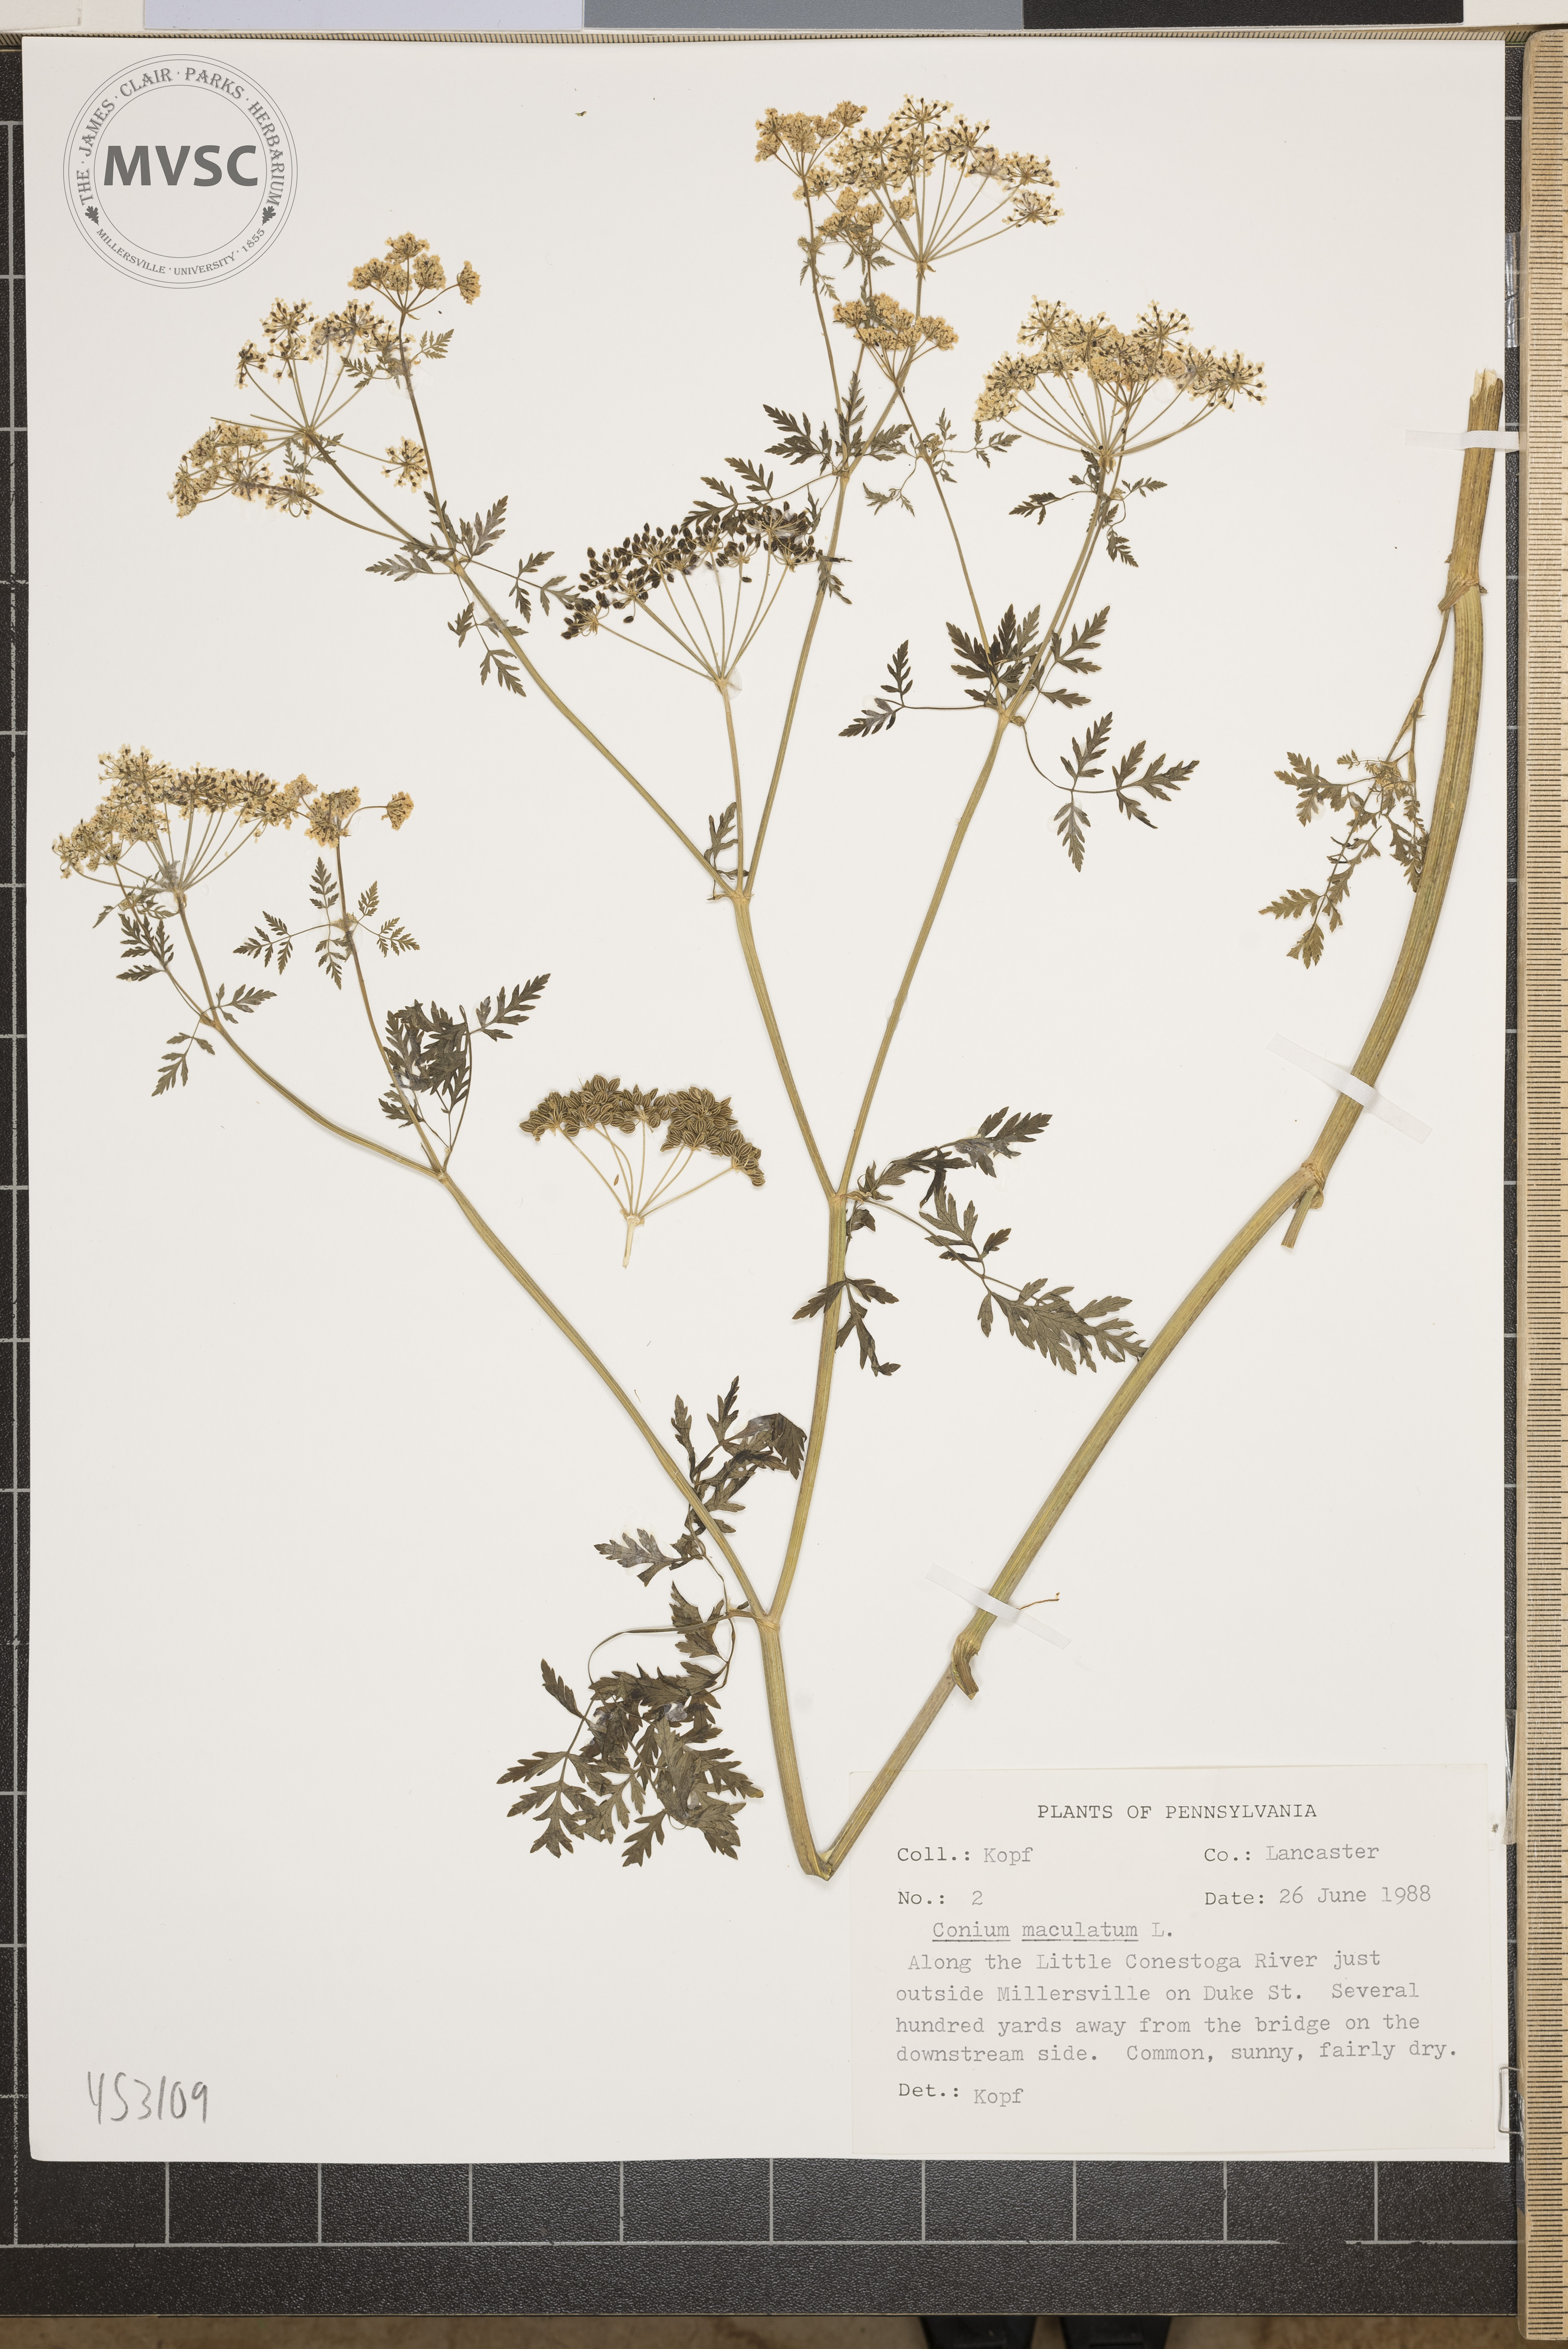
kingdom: Plantae
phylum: Tracheophyta
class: Magnoliopsida
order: Apiales
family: Apiaceae
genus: Conium
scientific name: Conium maculatum
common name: Hemlock
